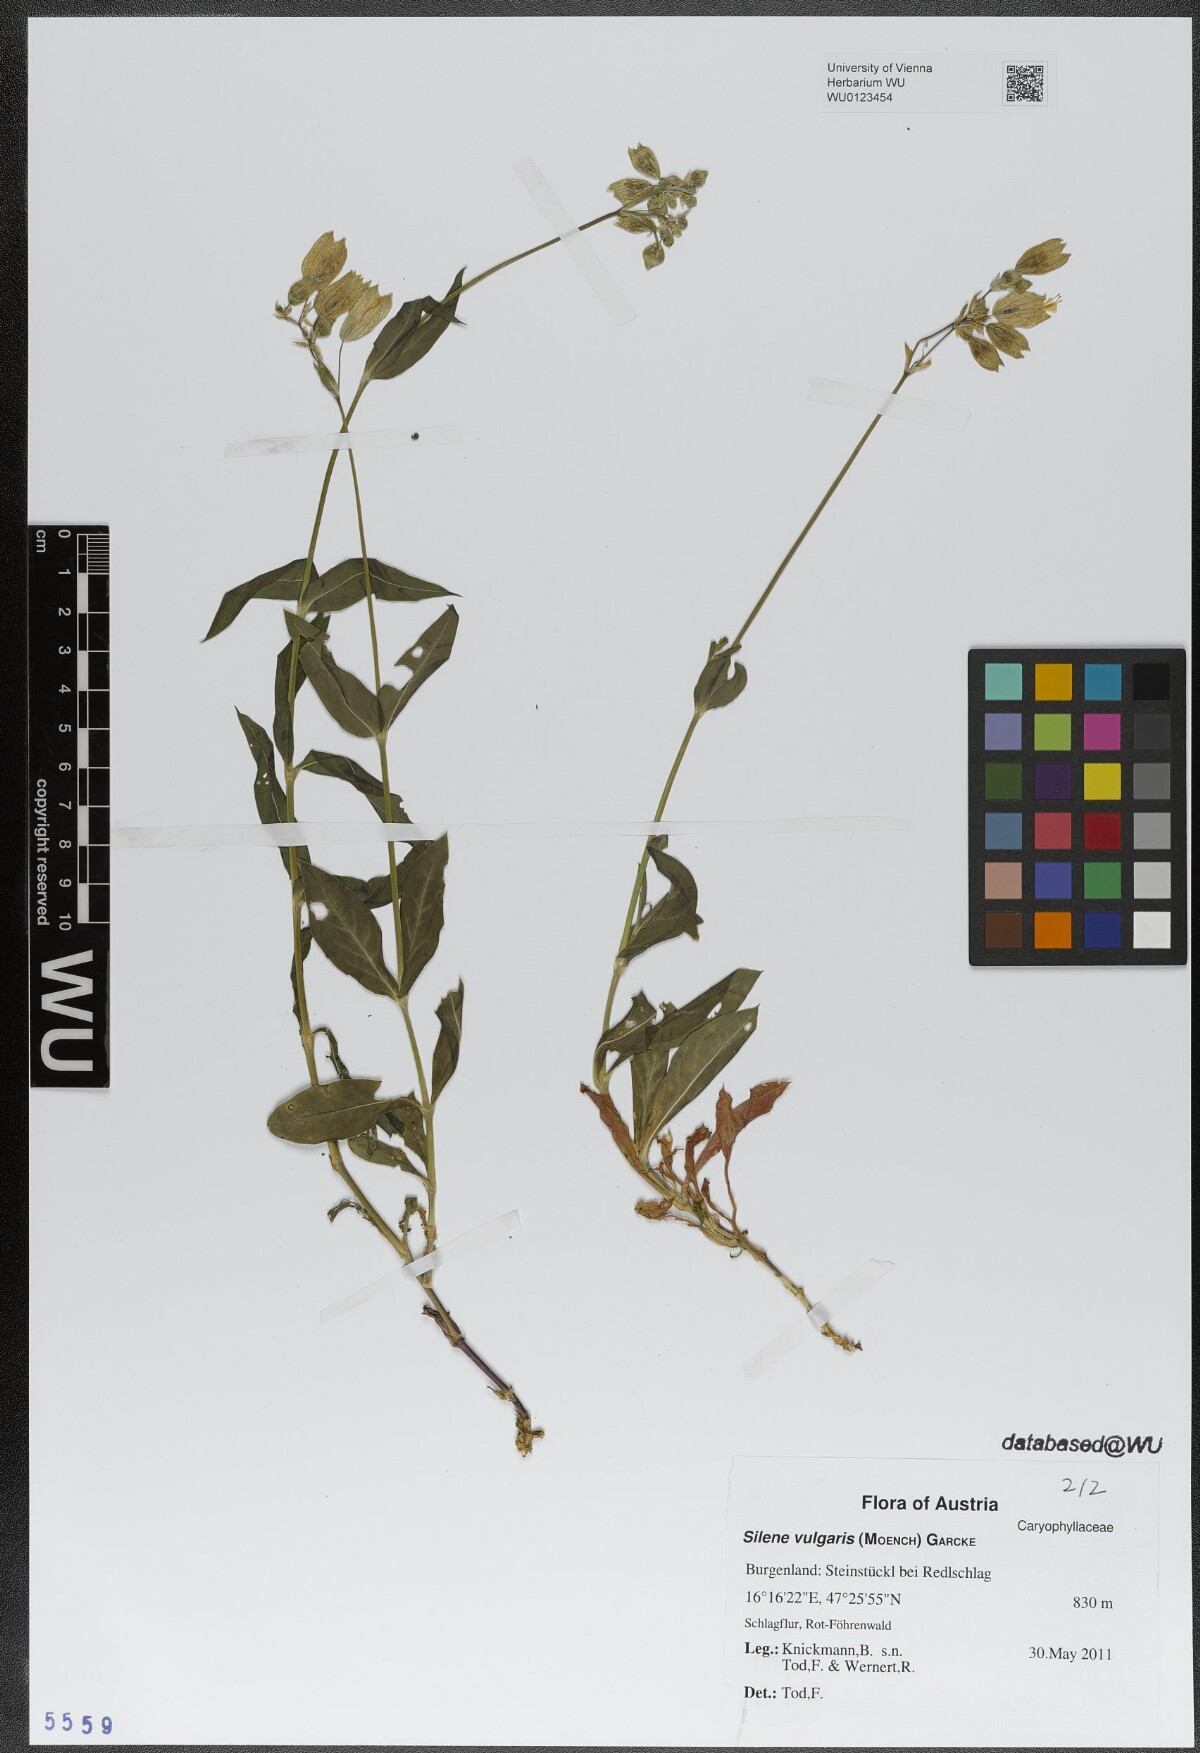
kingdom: Plantae
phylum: Tracheophyta
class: Magnoliopsida
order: Caryophyllales
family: Caryophyllaceae
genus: Silene
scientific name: Silene vulgaris
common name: Bladder campion
